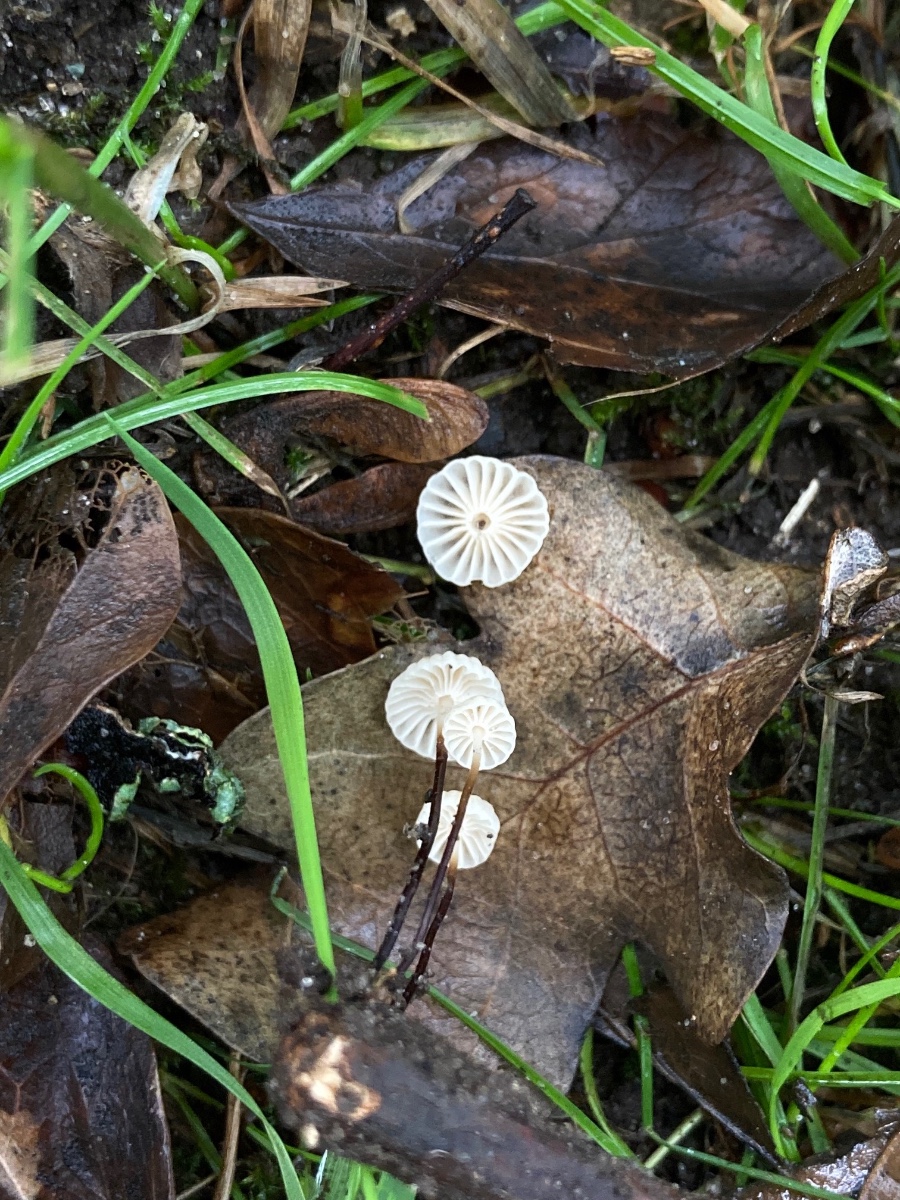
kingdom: Fungi
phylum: Basidiomycota
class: Agaricomycetes
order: Agaricales
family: Marasmiaceae
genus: Marasmius
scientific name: Marasmius rotula
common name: hjul-bruskhat
